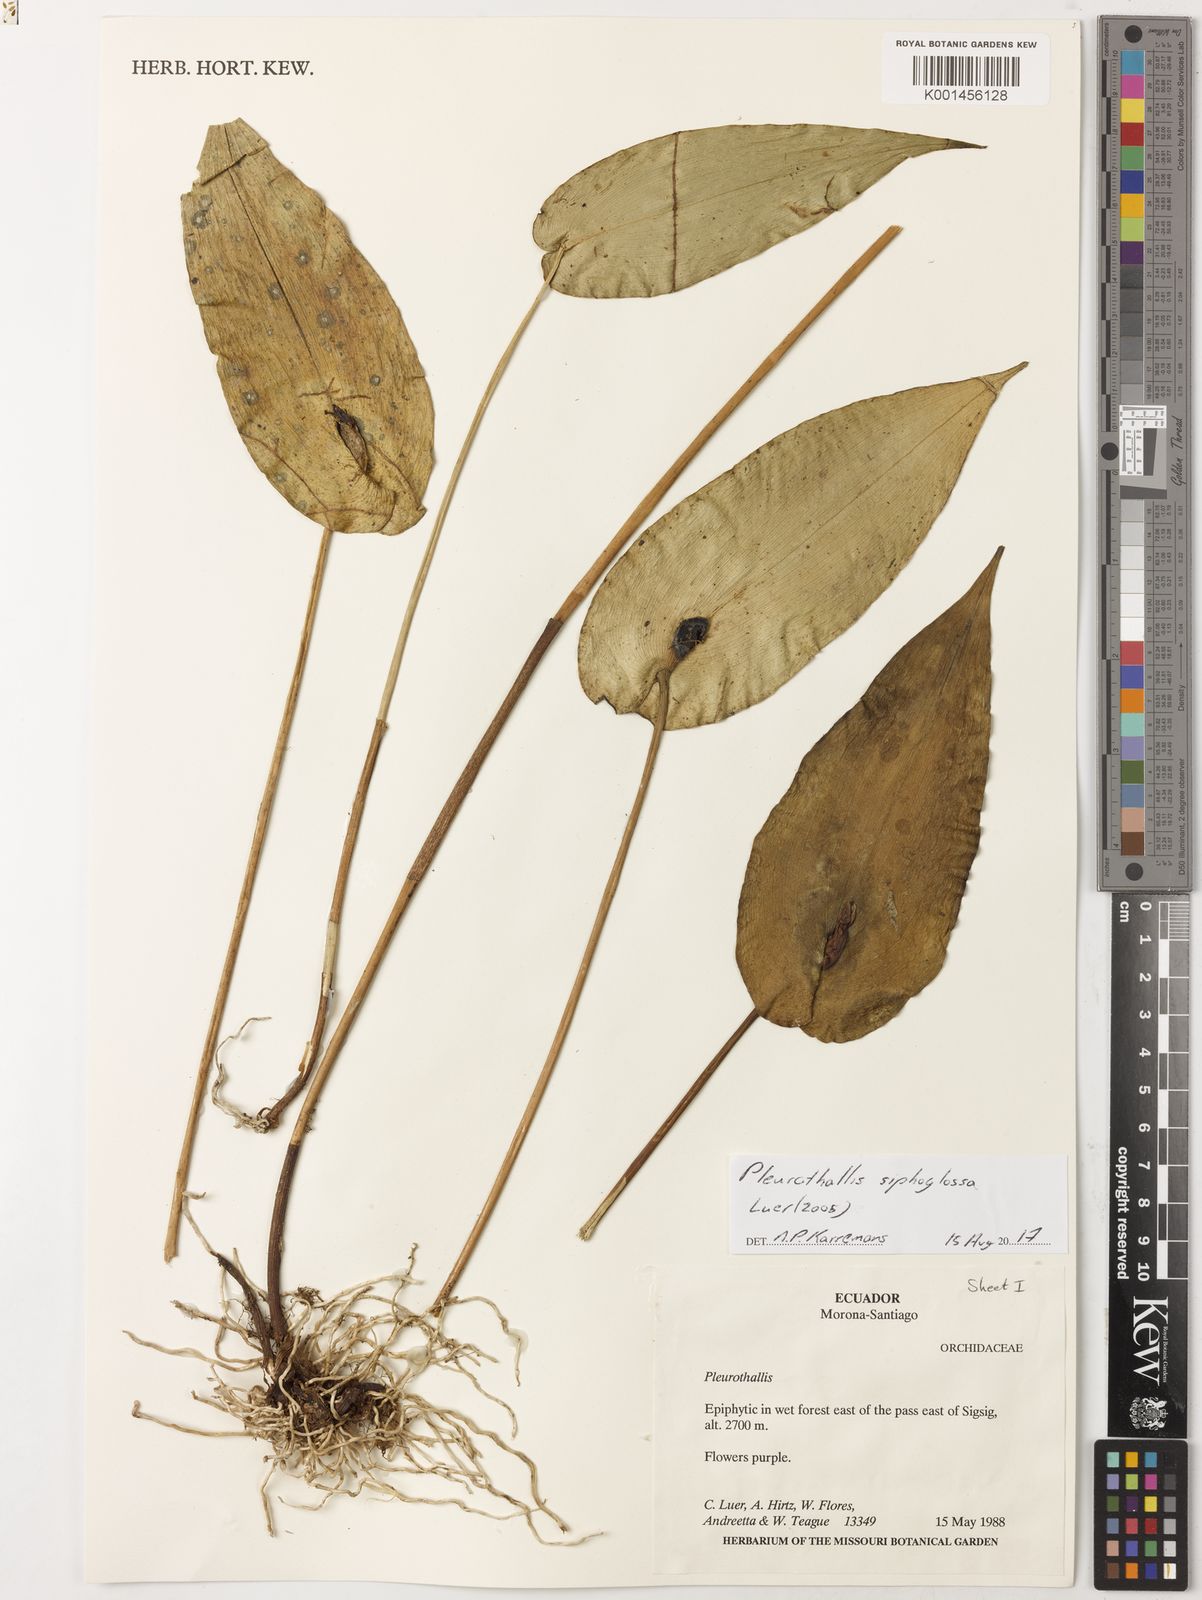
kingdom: Plantae
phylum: Tracheophyta
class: Liliopsida
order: Asparagales
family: Orchidaceae
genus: Stelis
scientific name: Stelis siphonantha
